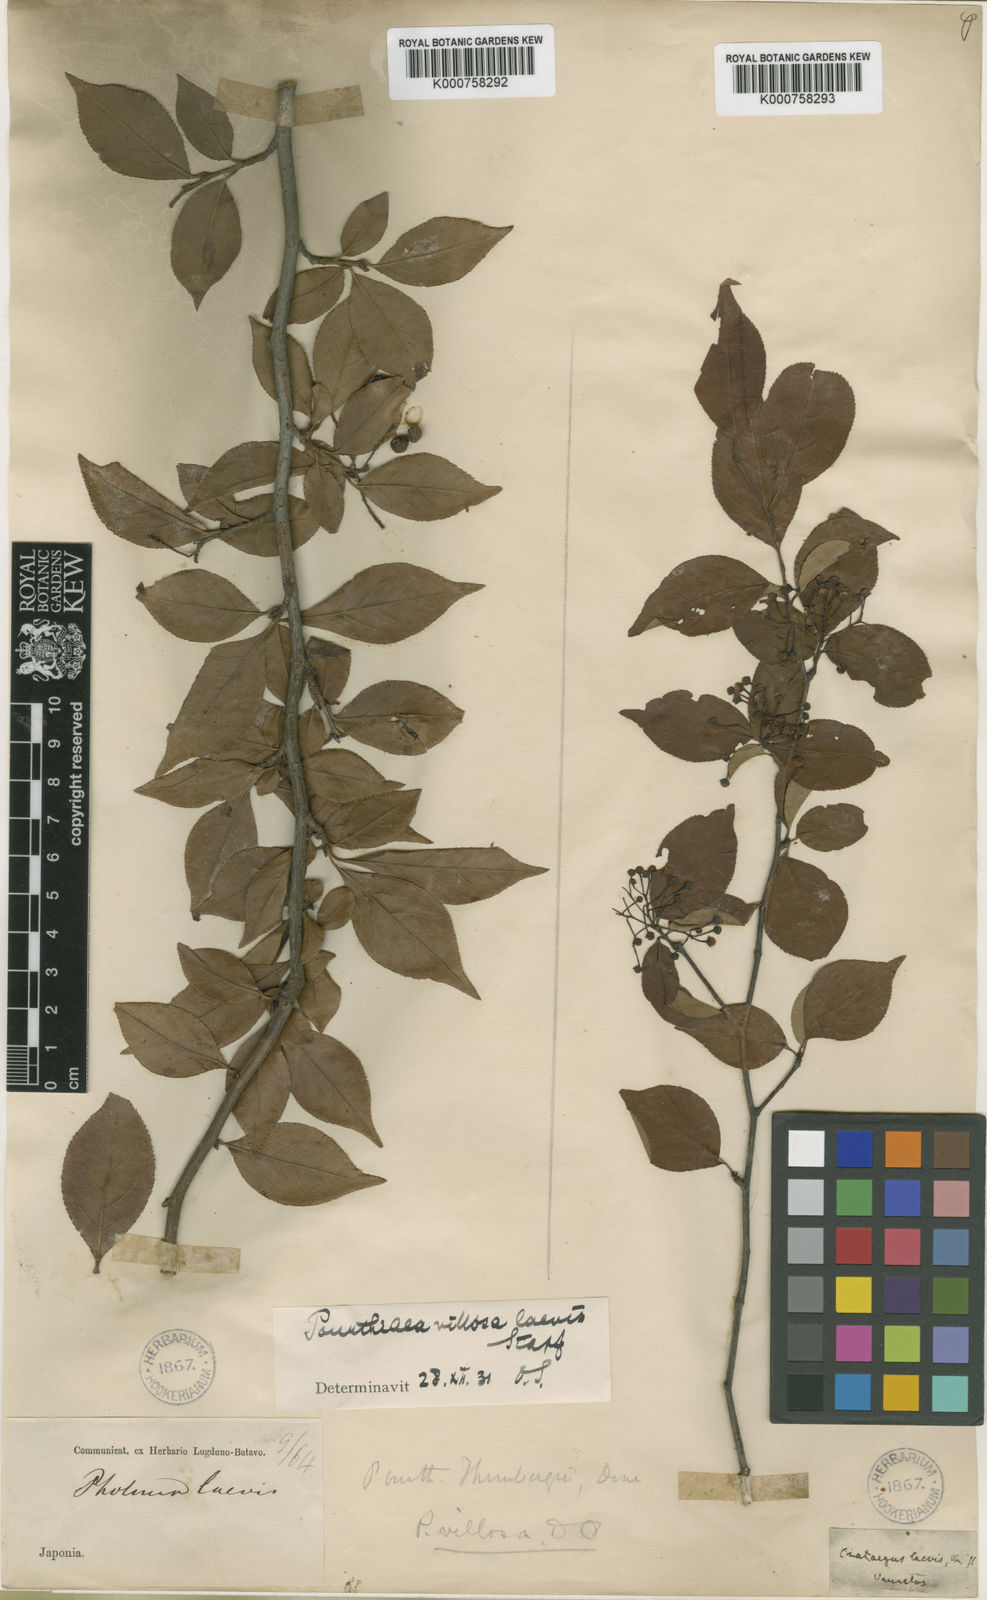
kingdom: Plantae
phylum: Tracheophyta
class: Magnoliopsida
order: Rosales
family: Rosaceae
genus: Pourthiaea
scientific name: Pourthiaea villosa
